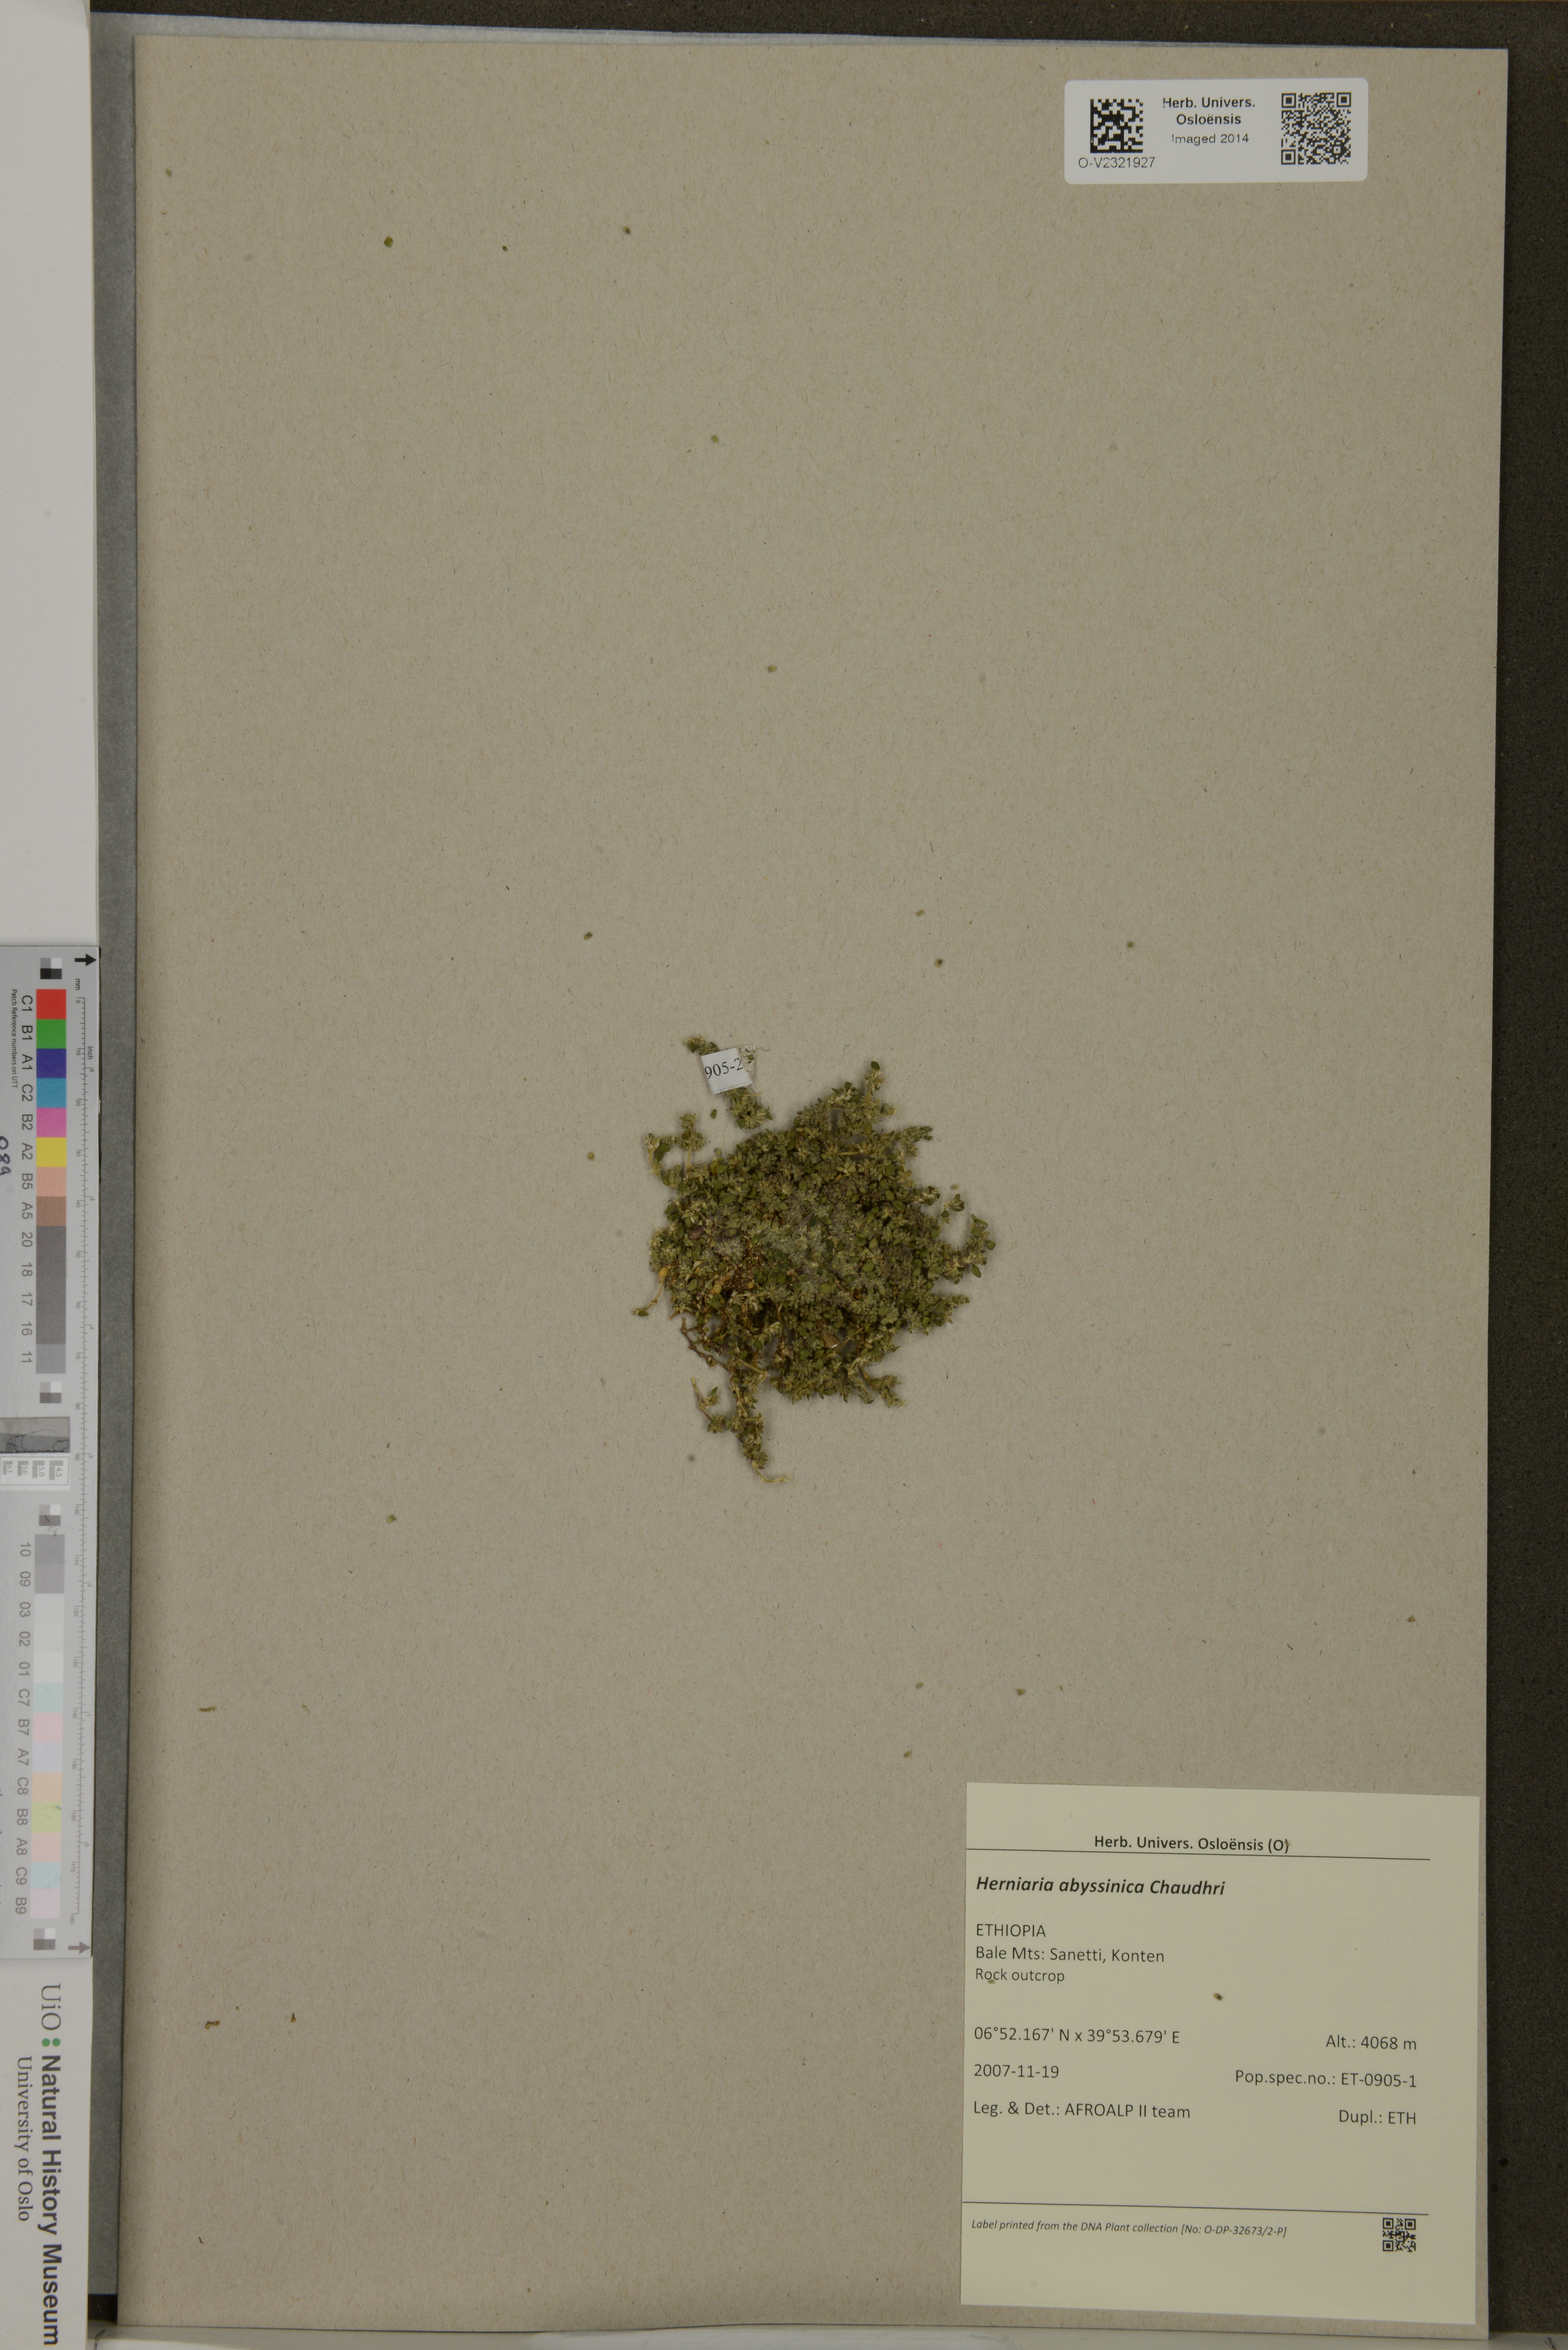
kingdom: Plantae
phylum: Tracheophyta
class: Magnoliopsida
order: Caryophyllales
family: Caryophyllaceae
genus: Herniaria
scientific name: Herniaria abyssinica
